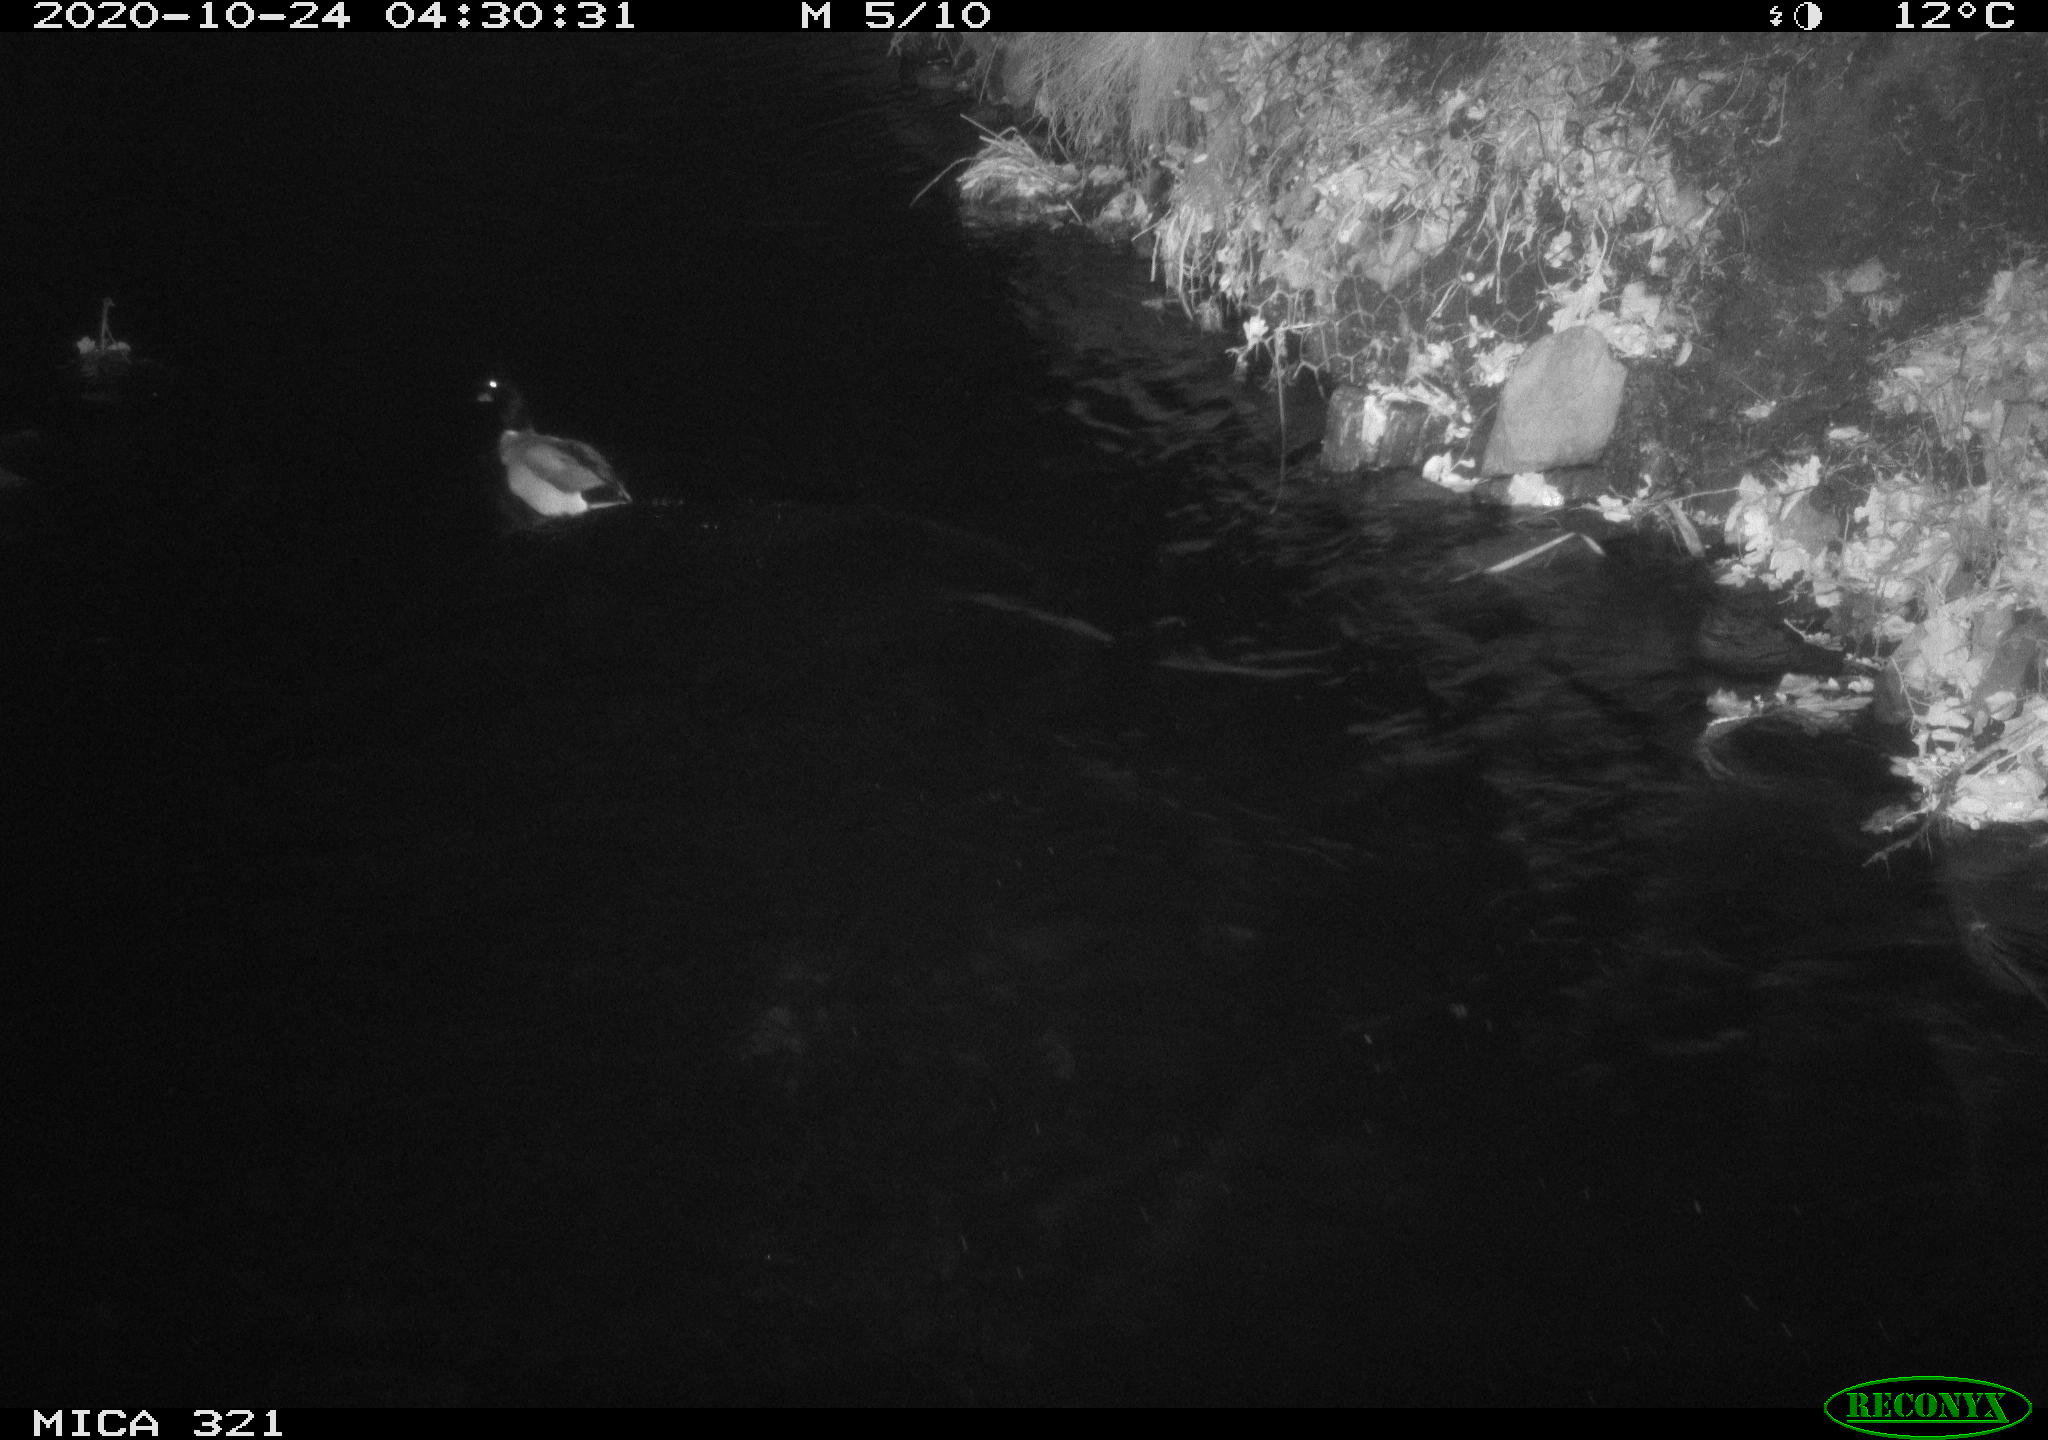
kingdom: Animalia
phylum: Chordata
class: Aves
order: Anseriformes
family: Anatidae
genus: Anas
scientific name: Anas platyrhynchos
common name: Mallard
